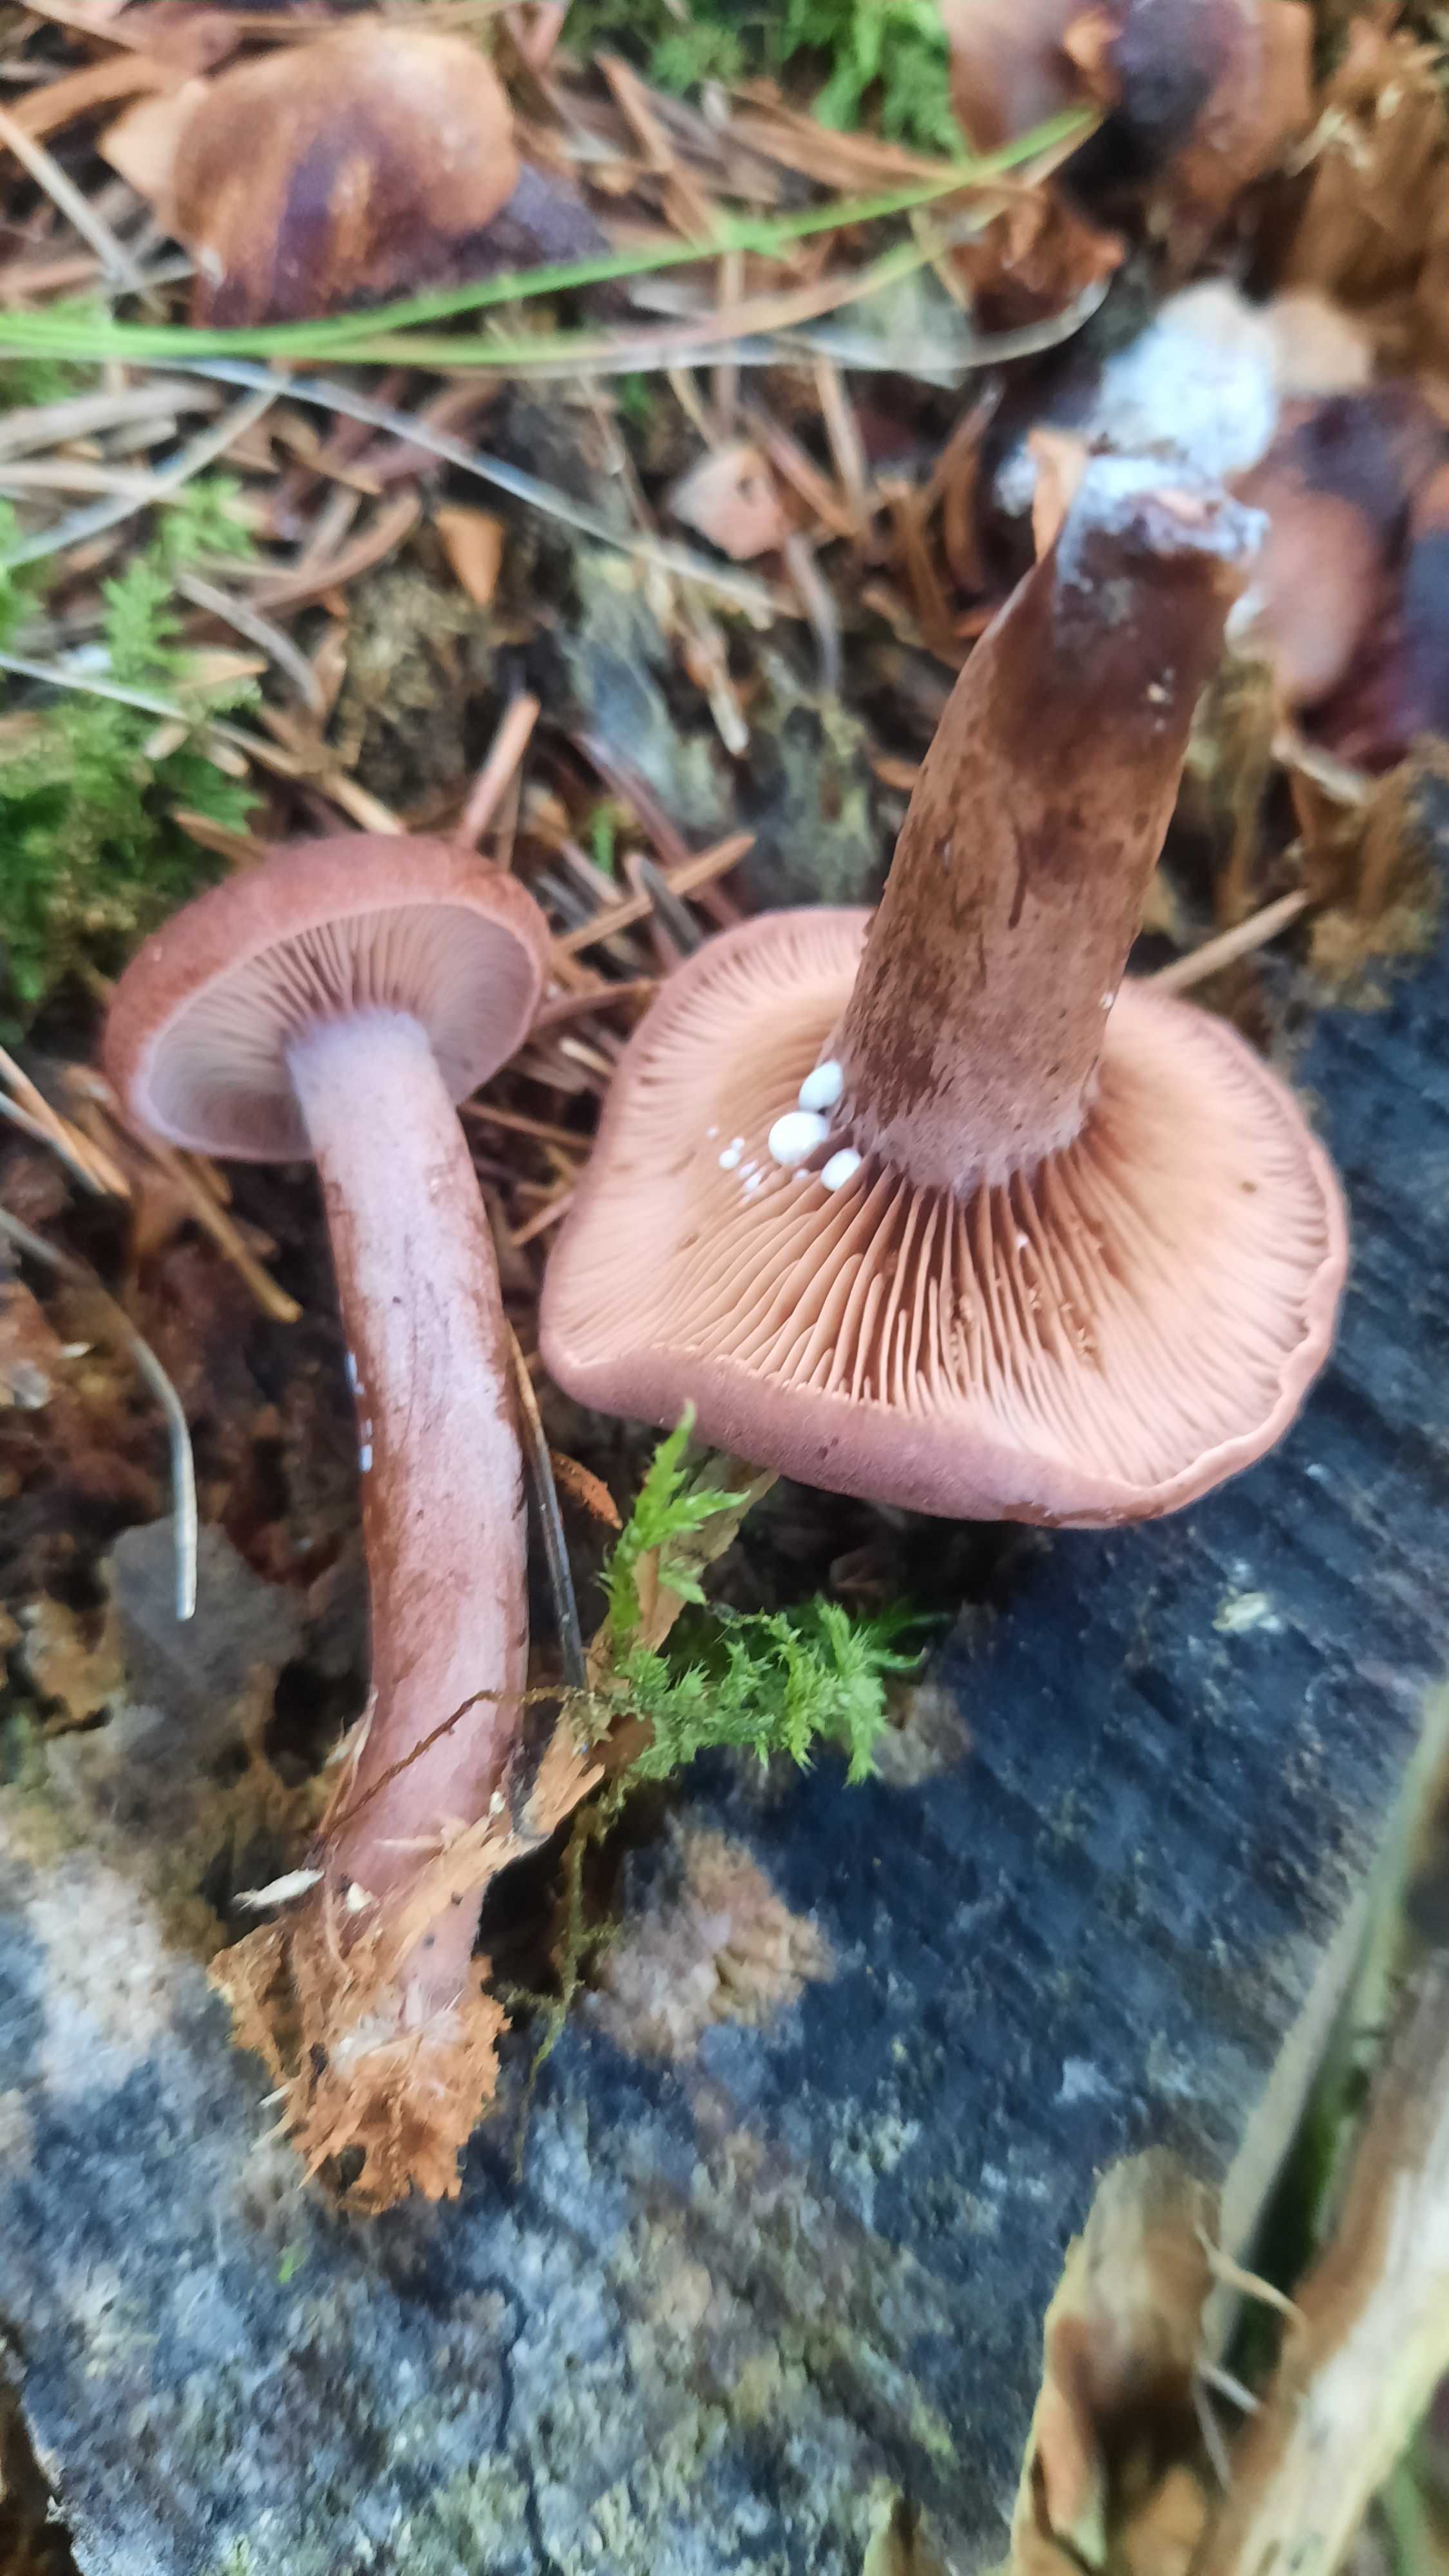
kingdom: Fungi
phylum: Basidiomycota
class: Agaricomycetes
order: Russulales
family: Russulaceae
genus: Lactarius
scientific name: Lactarius camphoratus
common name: kamfer-mælkehat
